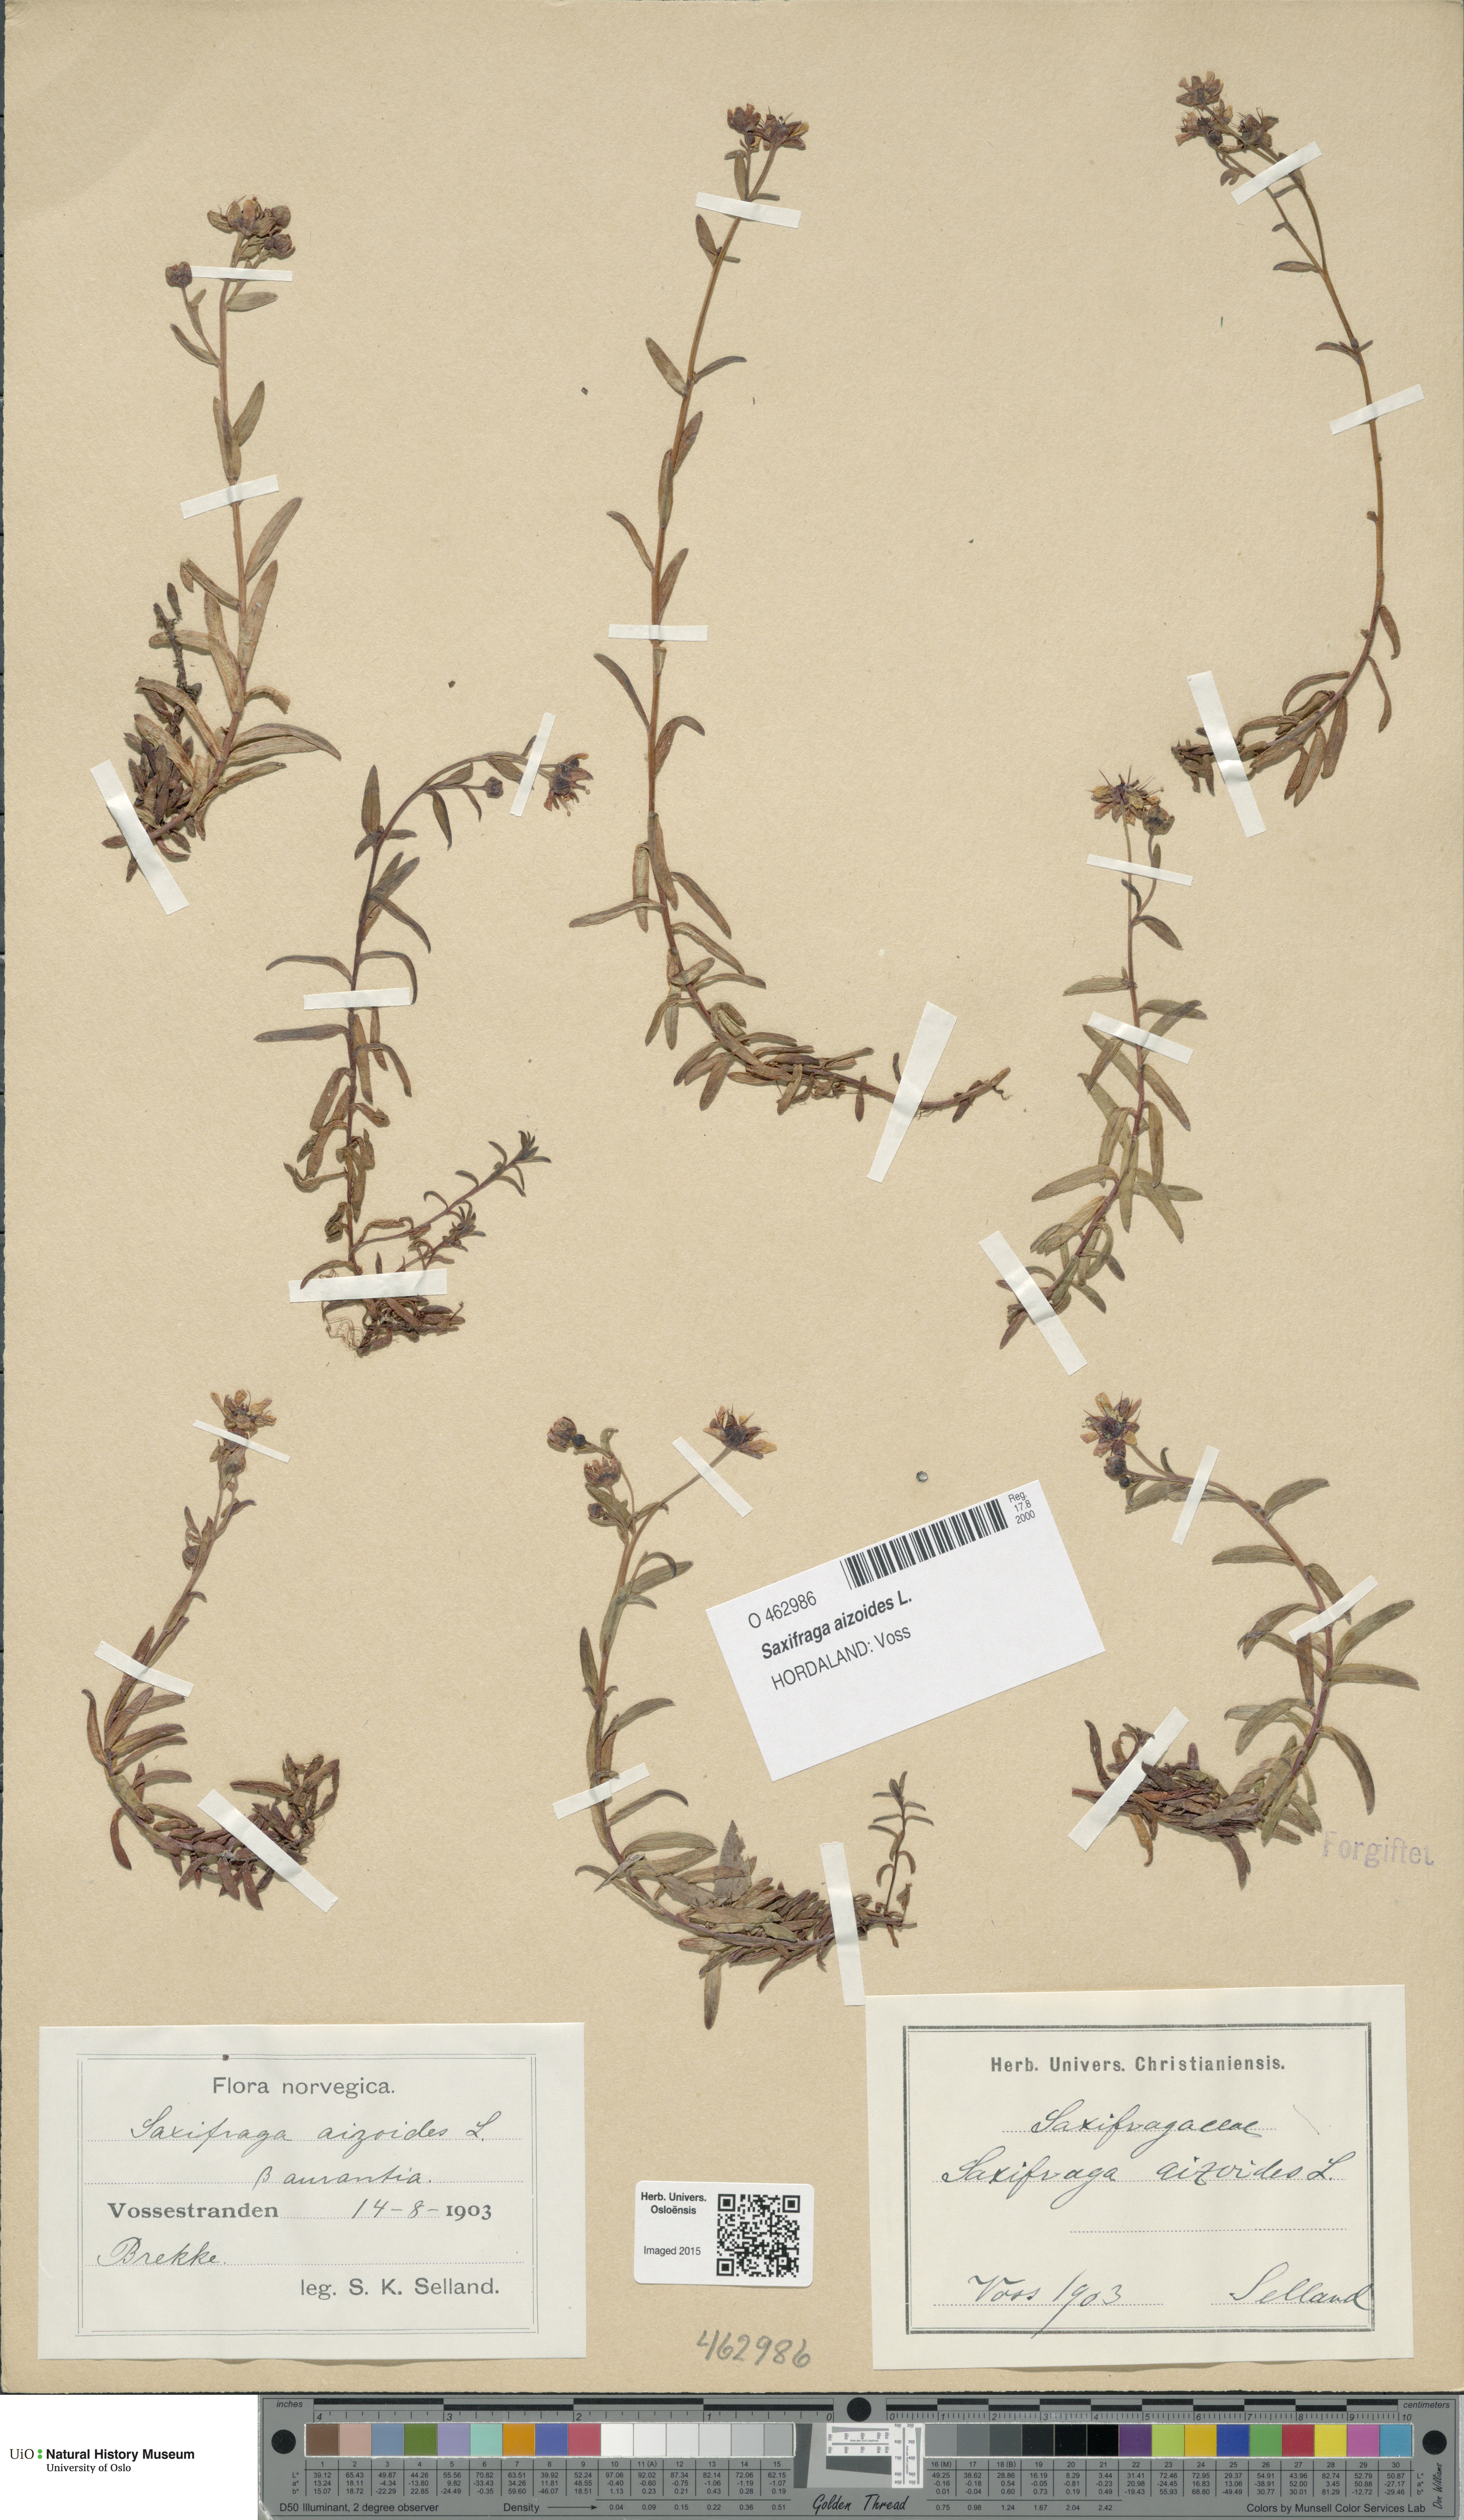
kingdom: Plantae
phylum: Tracheophyta
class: Magnoliopsida
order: Saxifragales
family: Saxifragaceae
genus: Saxifraga
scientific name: Saxifraga aizoides
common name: Yellow mountain saxifrage
